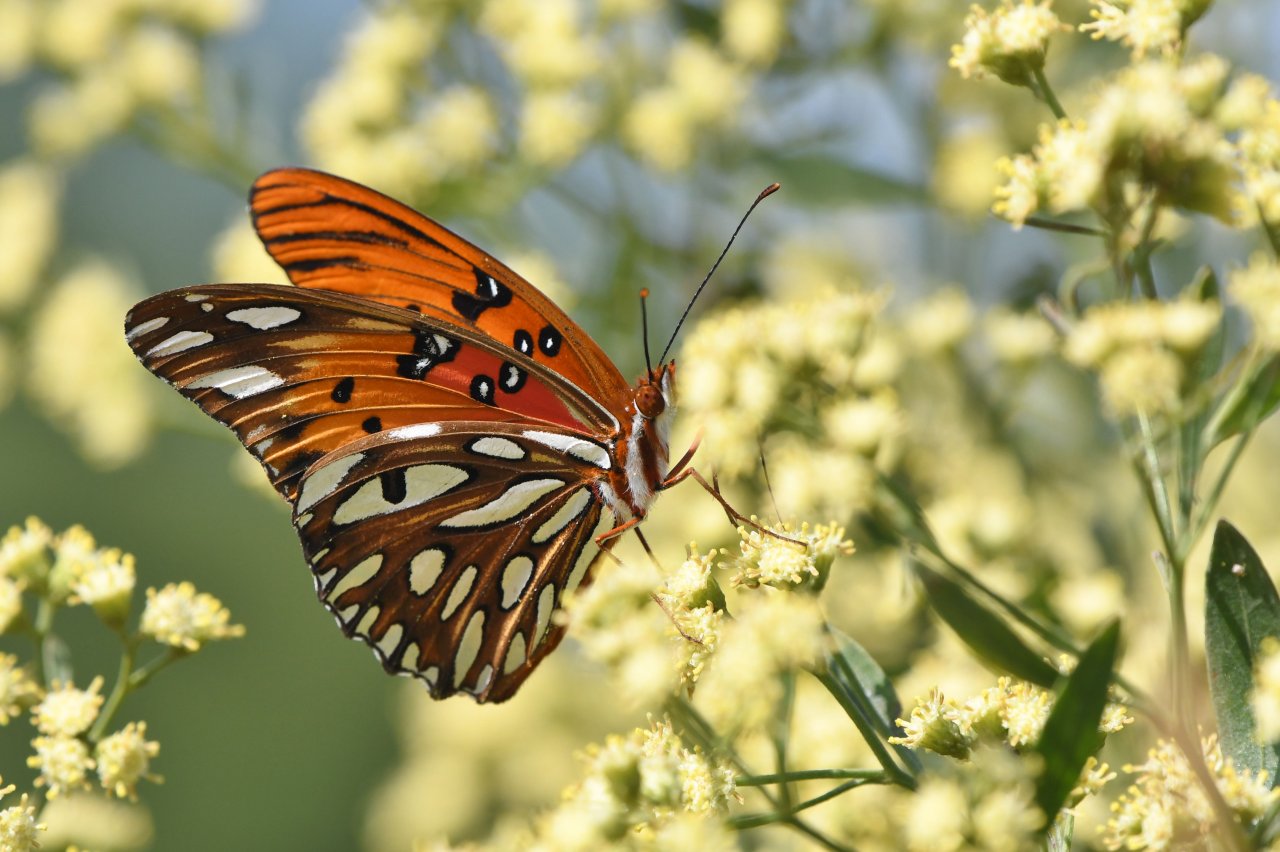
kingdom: Animalia
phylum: Arthropoda
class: Insecta
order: Lepidoptera
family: Nymphalidae
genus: Dione
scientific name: Dione vanillae
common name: Gulf Fritillary
